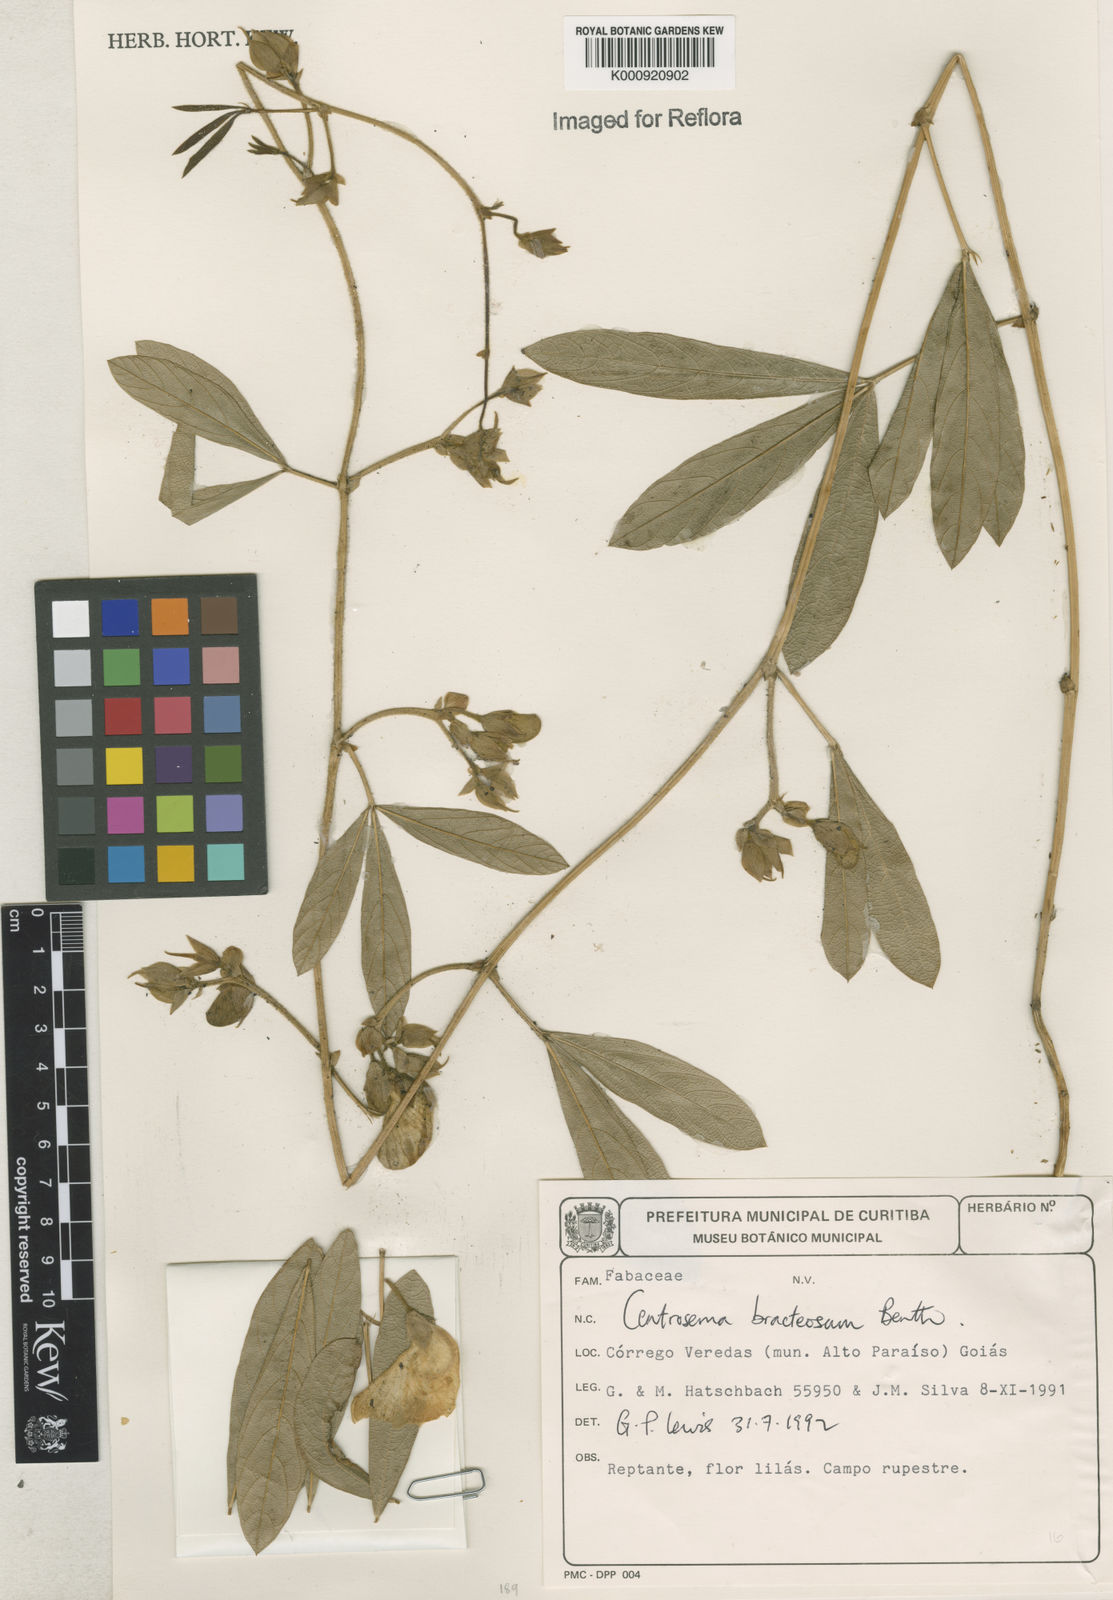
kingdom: Plantae
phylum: Tracheophyta
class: Magnoliopsida
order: Fabales
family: Fabaceae
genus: Centrosema
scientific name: Centrosema bracteosum
